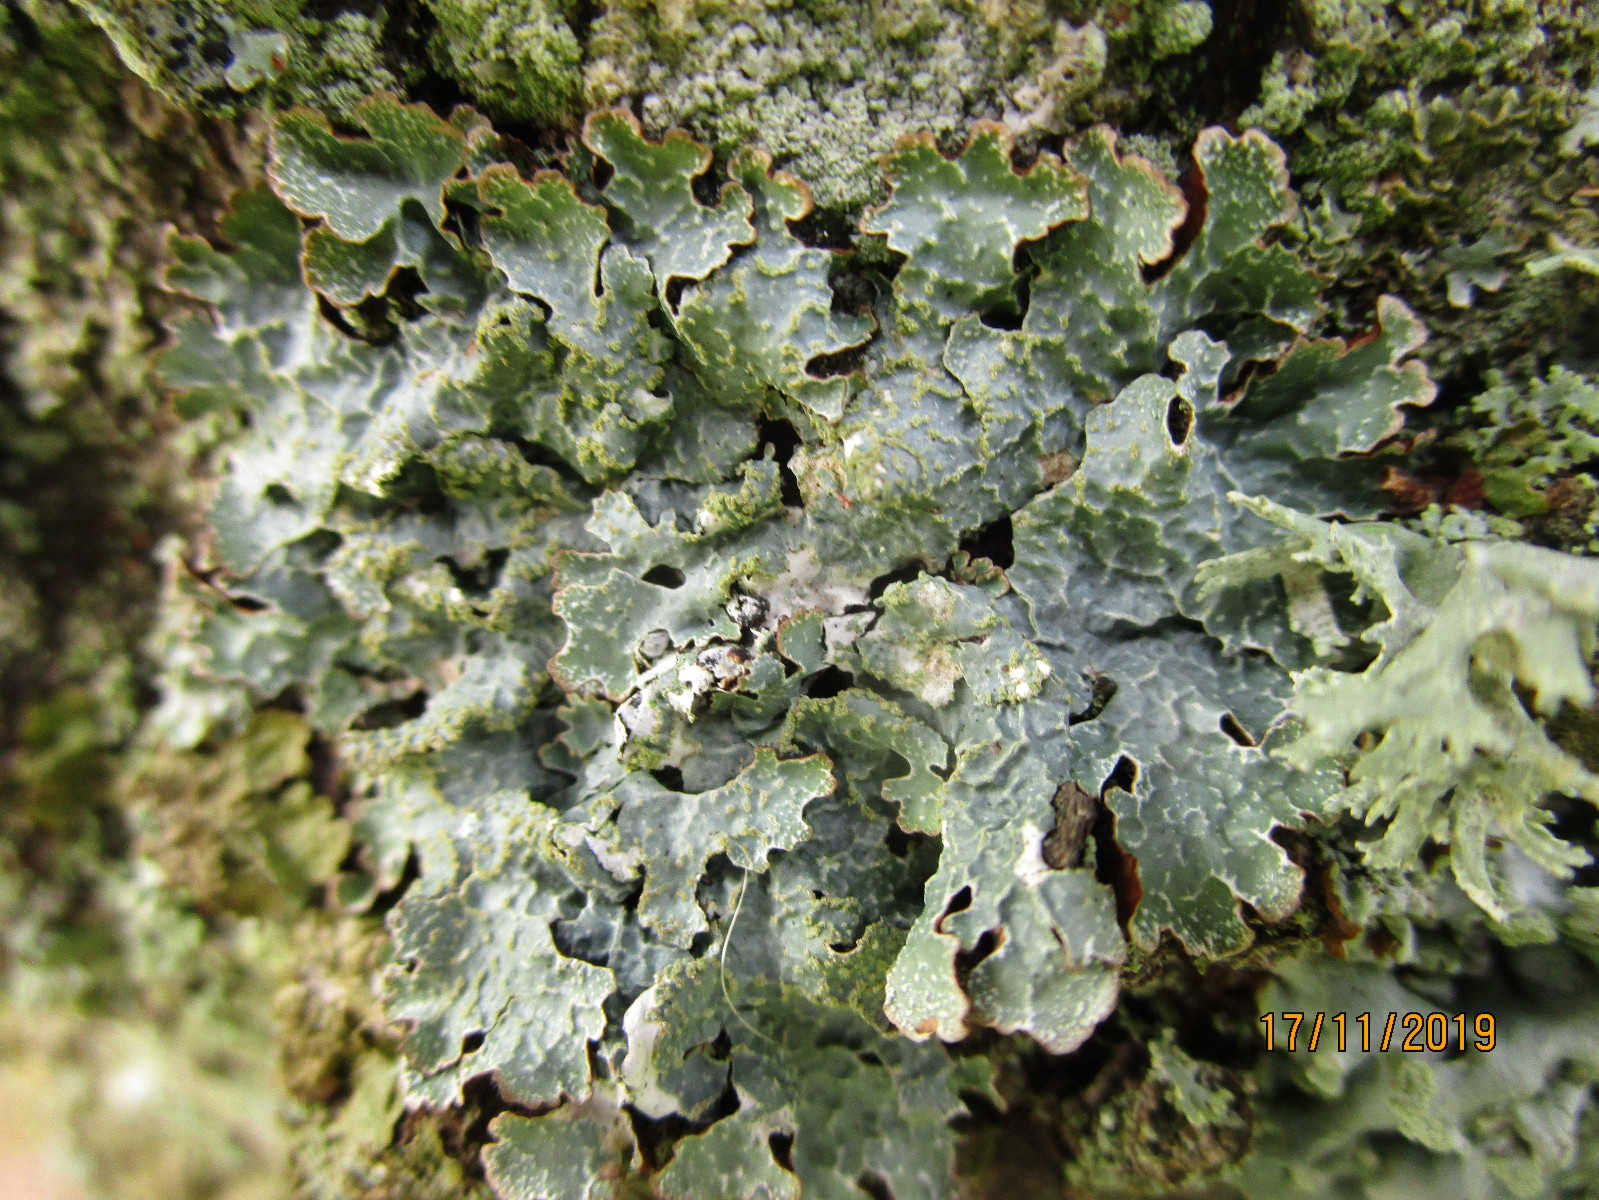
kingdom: Fungi
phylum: Ascomycota
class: Lecanoromycetes
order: Lecanorales
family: Parmeliaceae
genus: Parmelia
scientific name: Parmelia sulcata
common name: rynket skållav
